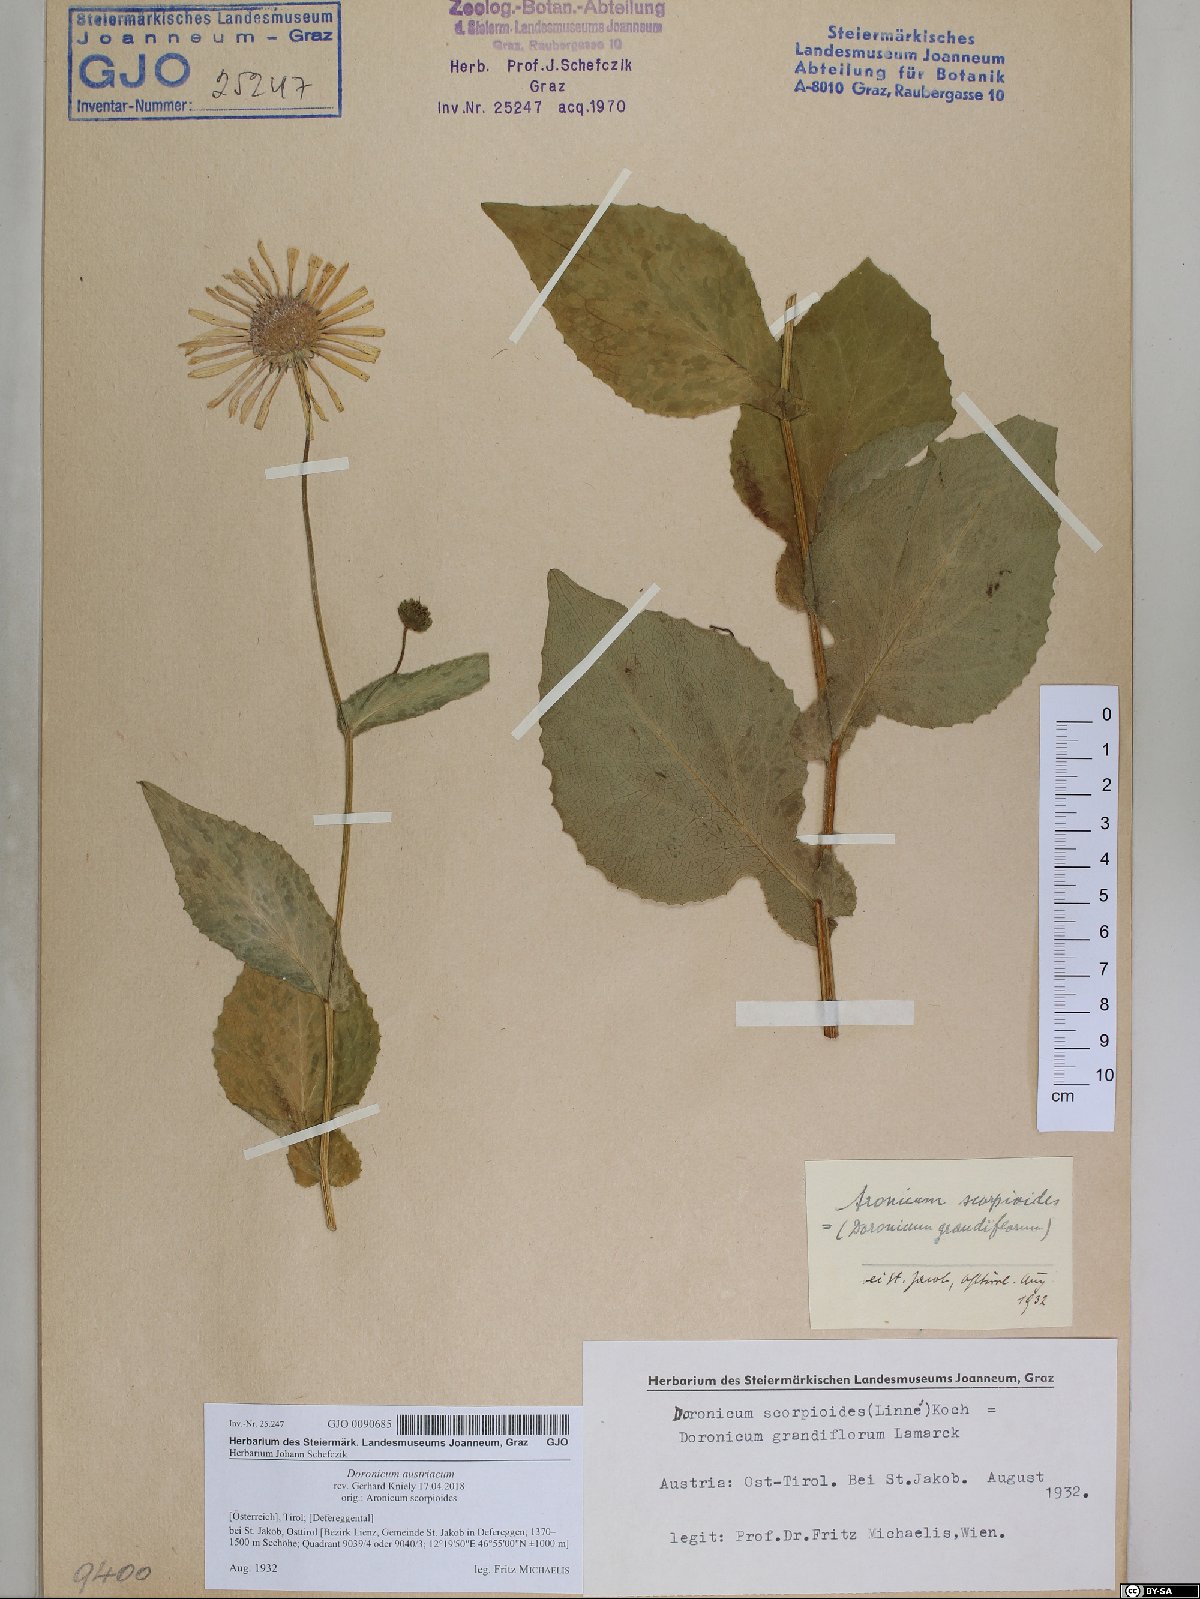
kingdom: Plantae
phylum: Tracheophyta
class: Magnoliopsida
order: Asterales
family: Asteraceae
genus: Doronicum
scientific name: Doronicum austriacum
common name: Austrian leopard's-bane
